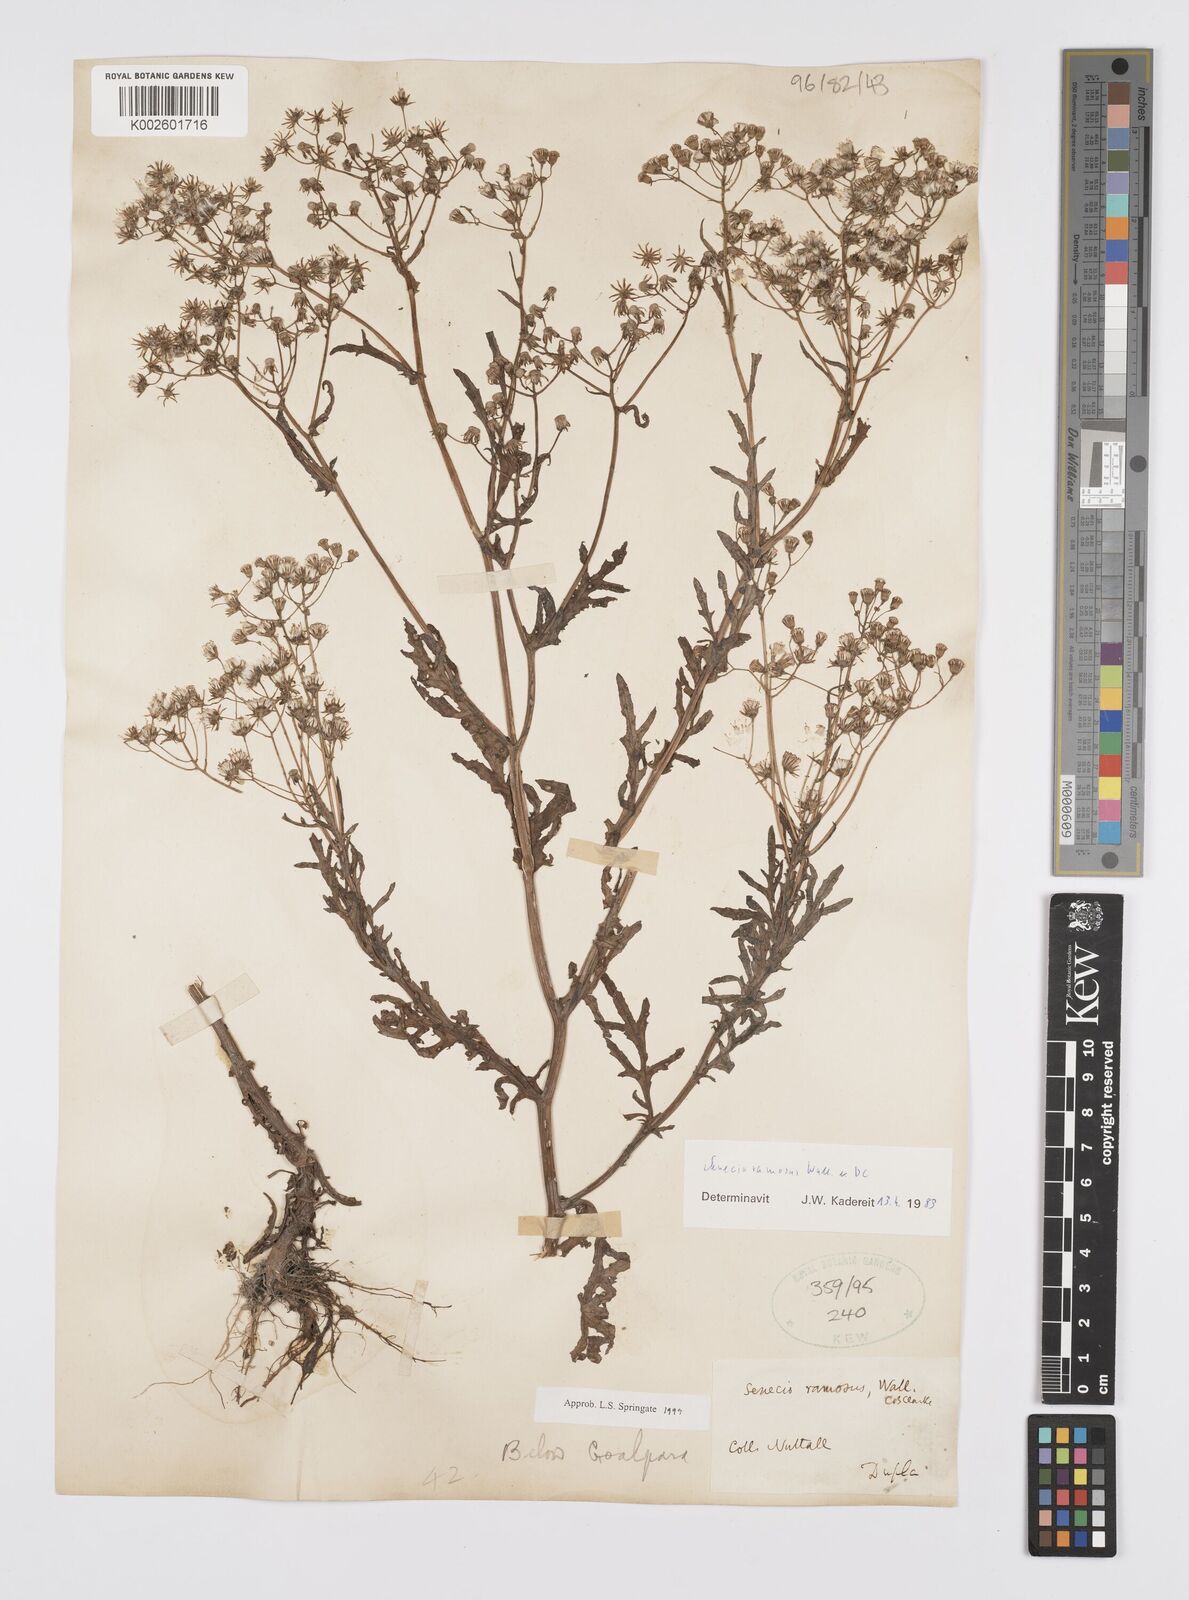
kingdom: Plantae
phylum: Tracheophyta
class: Magnoliopsida
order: Asterales
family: Asteraceae
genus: Senecio
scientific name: Senecio ramosus
